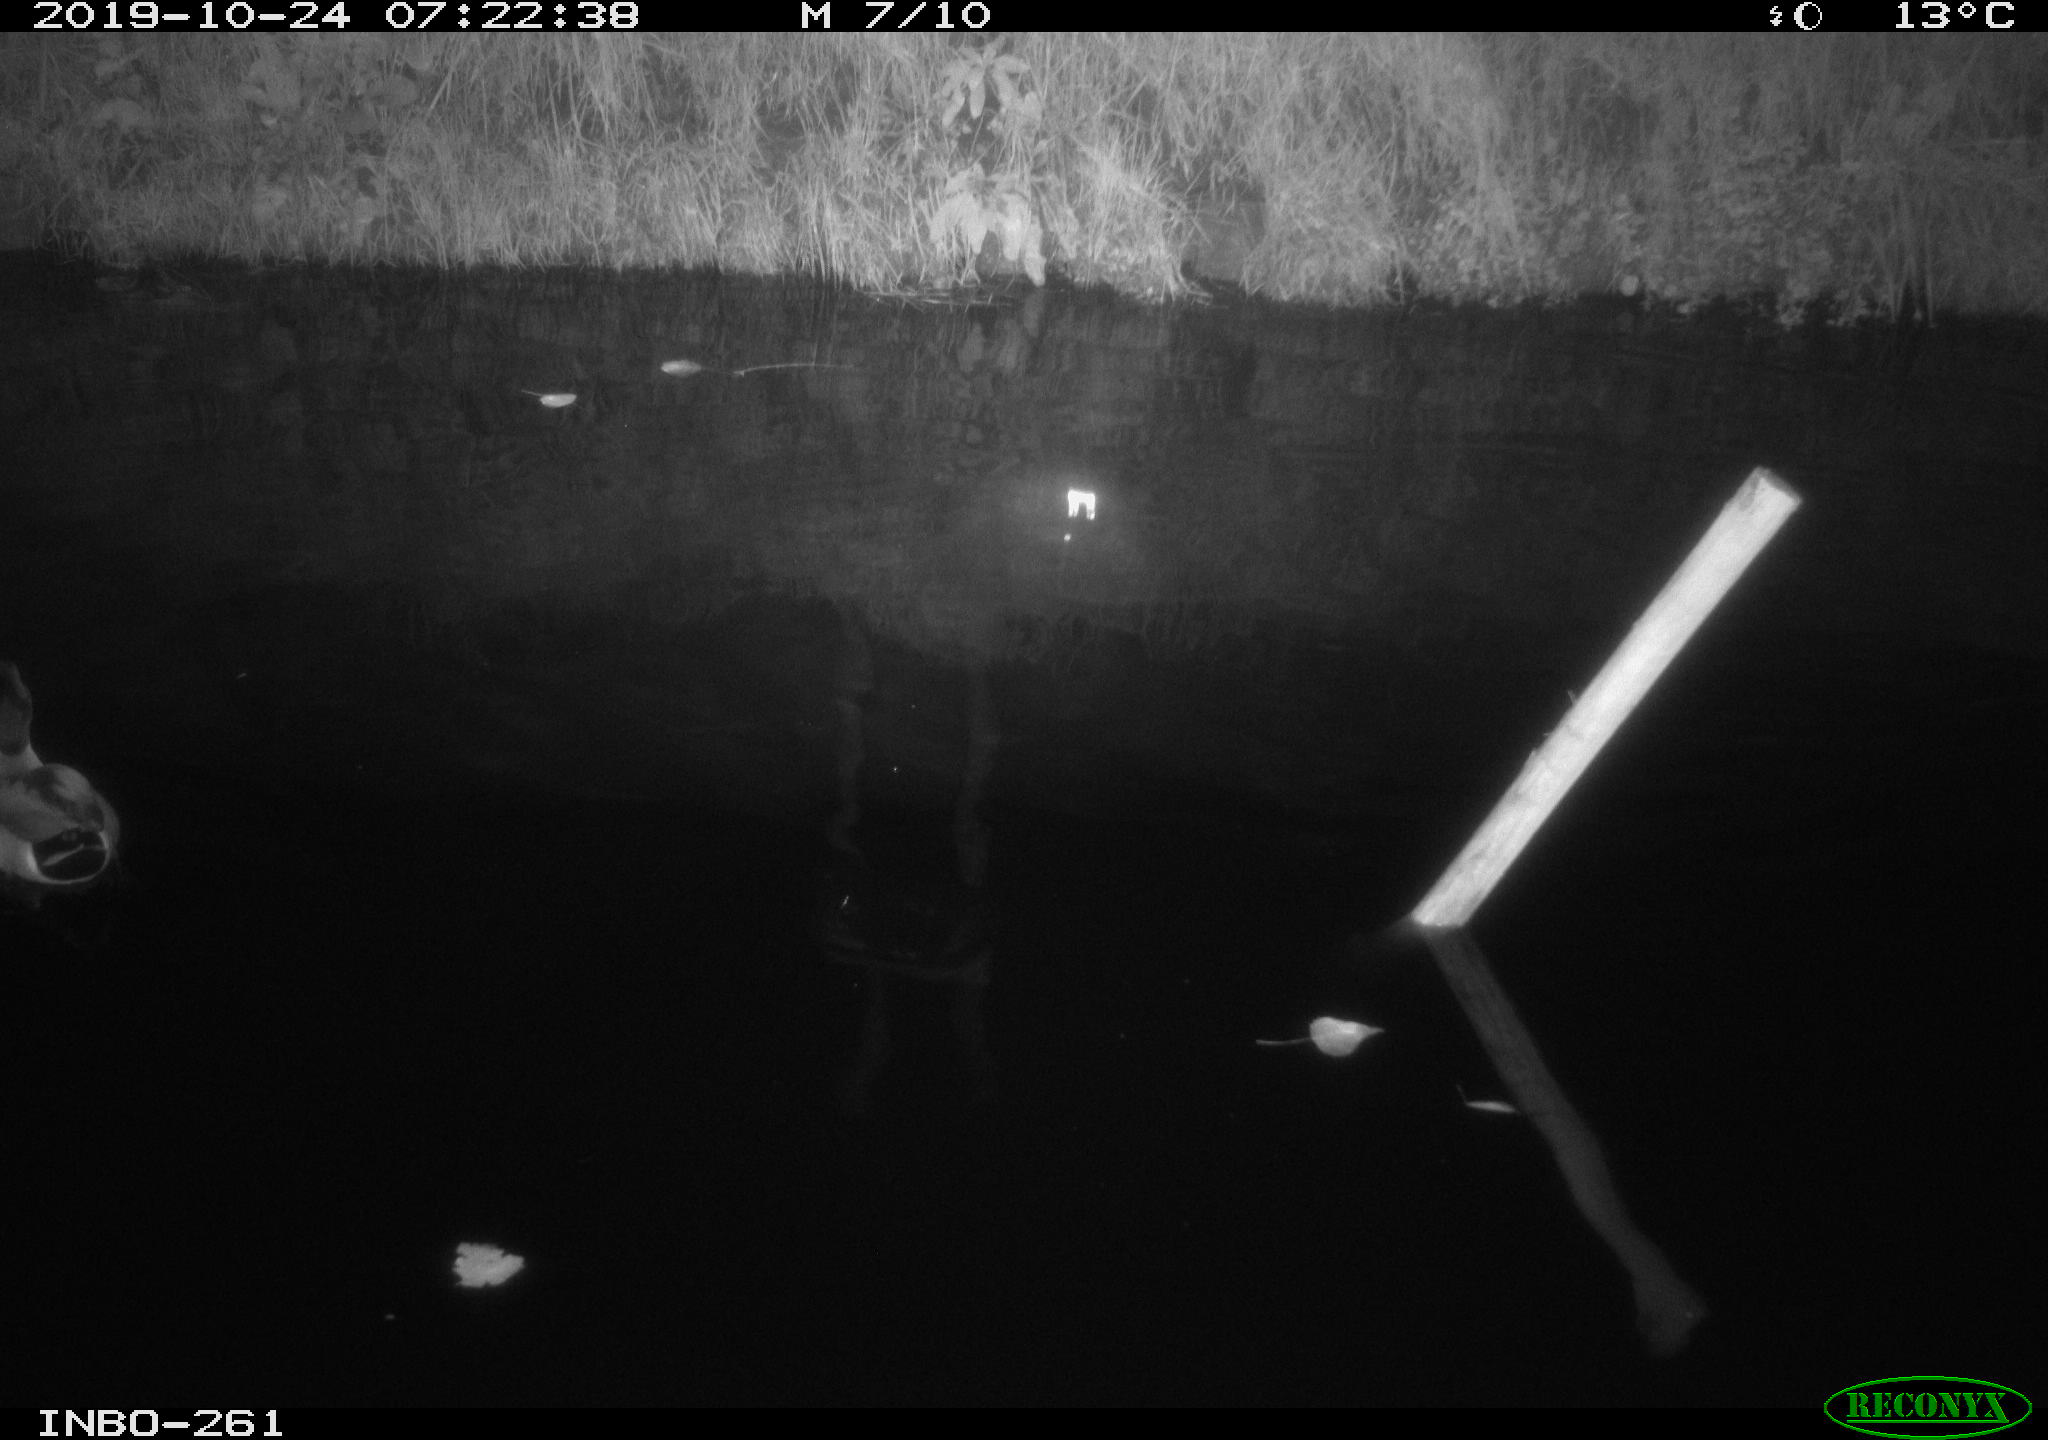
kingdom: Animalia
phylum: Chordata
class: Aves
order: Anseriformes
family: Anatidae
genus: Anas
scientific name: Anas platyrhynchos
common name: Mallard
